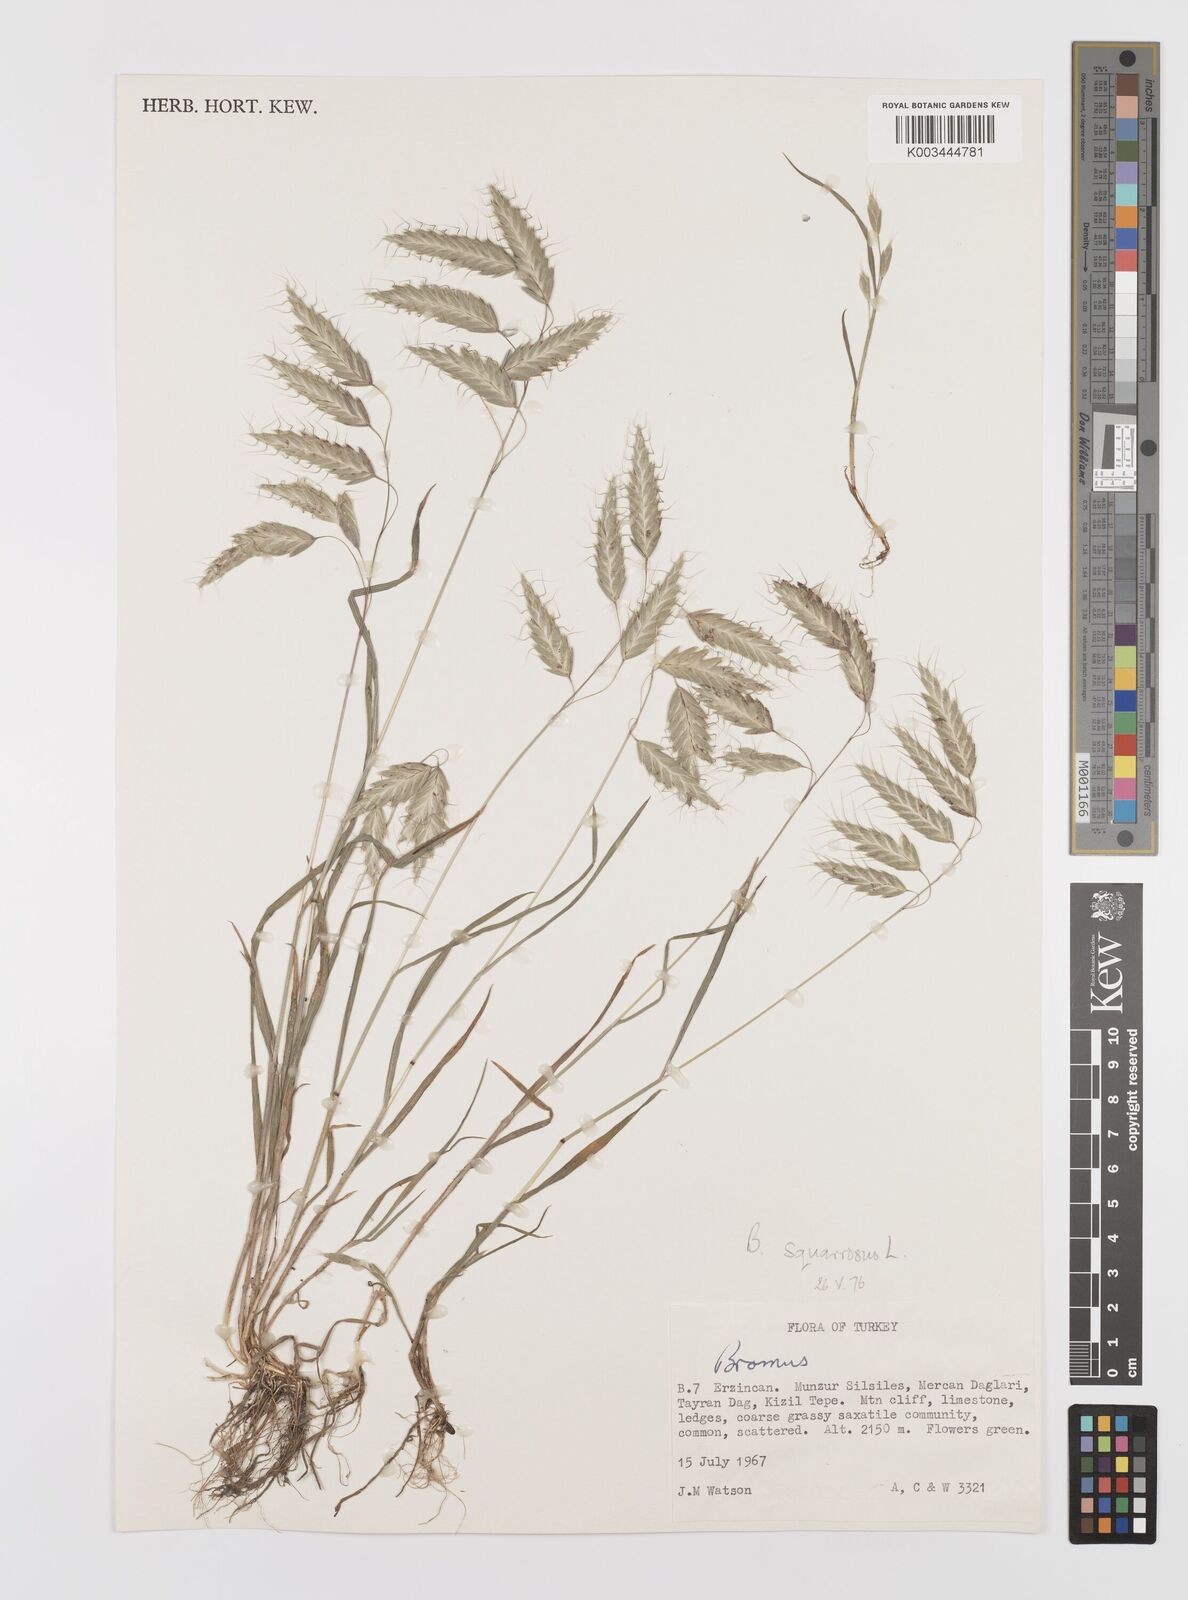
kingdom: Plantae
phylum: Tracheophyta
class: Liliopsida
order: Poales
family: Poaceae
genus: Bromus
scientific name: Bromus squarrosus
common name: Corn brome
